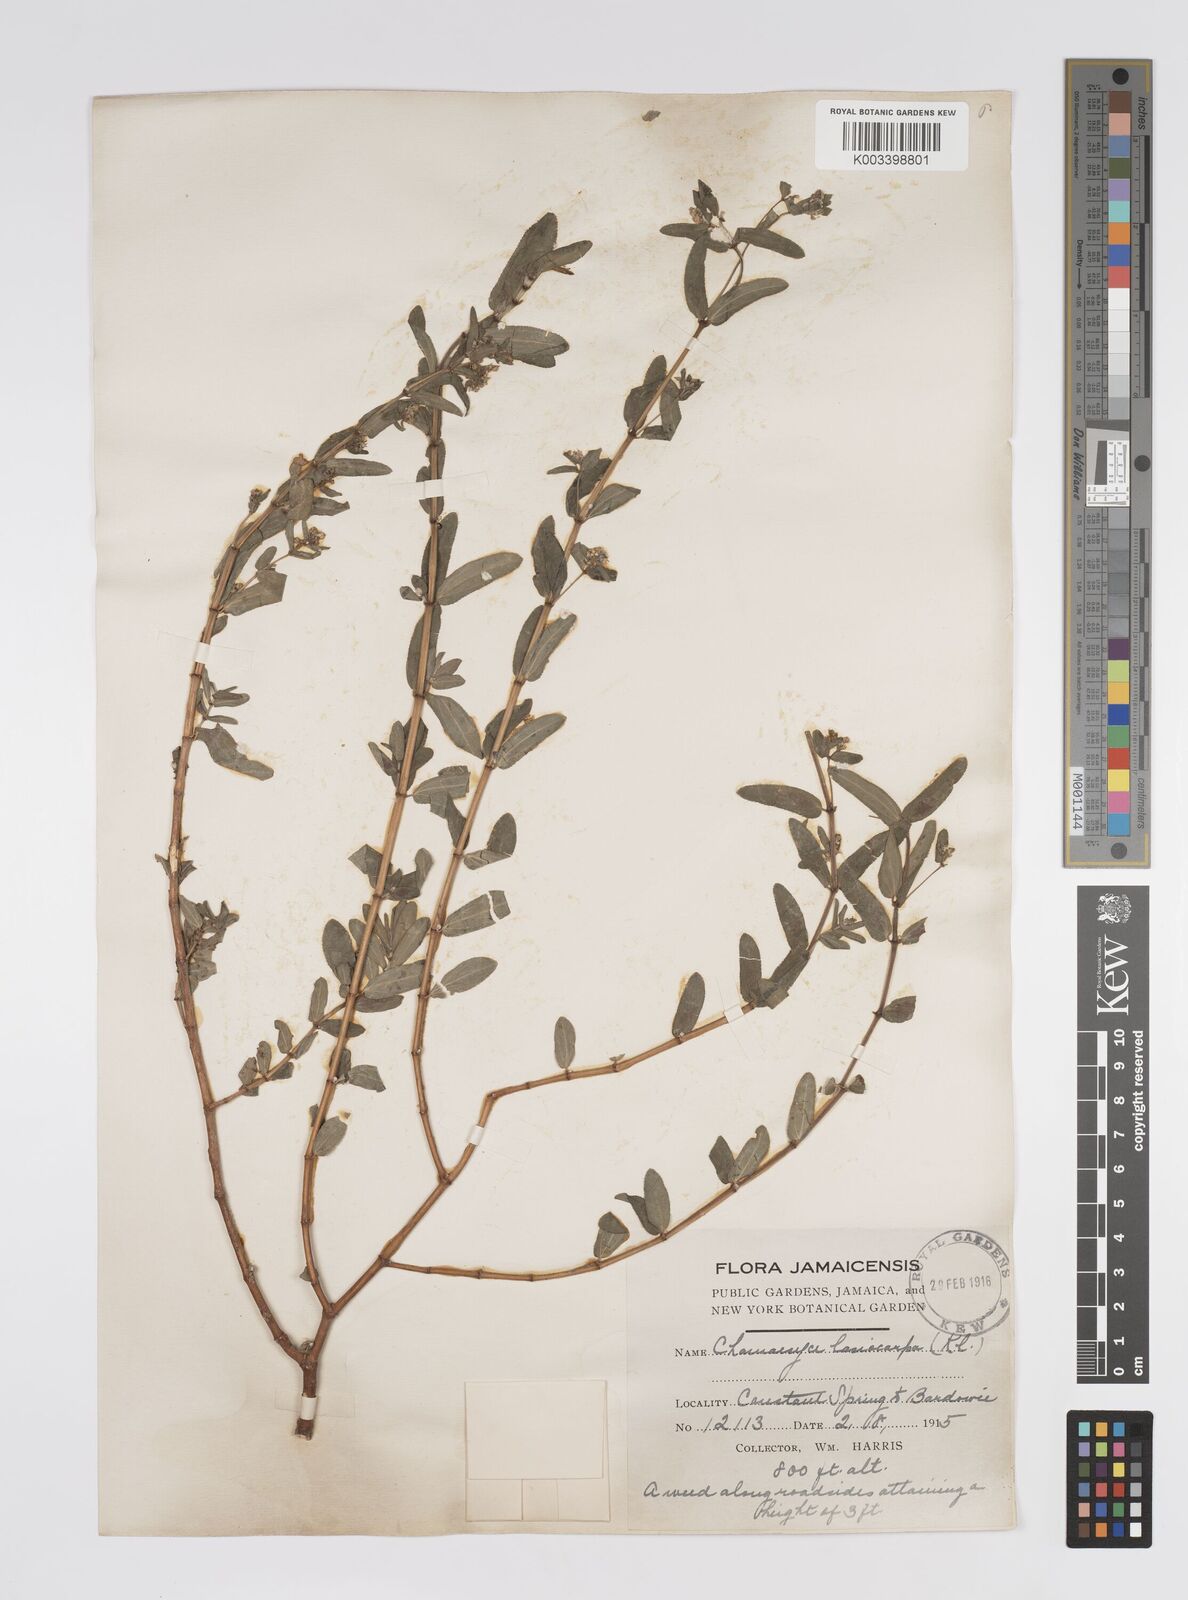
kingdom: Plantae
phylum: Tracheophyta
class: Magnoliopsida
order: Malpighiales
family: Euphorbiaceae
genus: Euphorbia
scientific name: Euphorbia lasiocarpa
